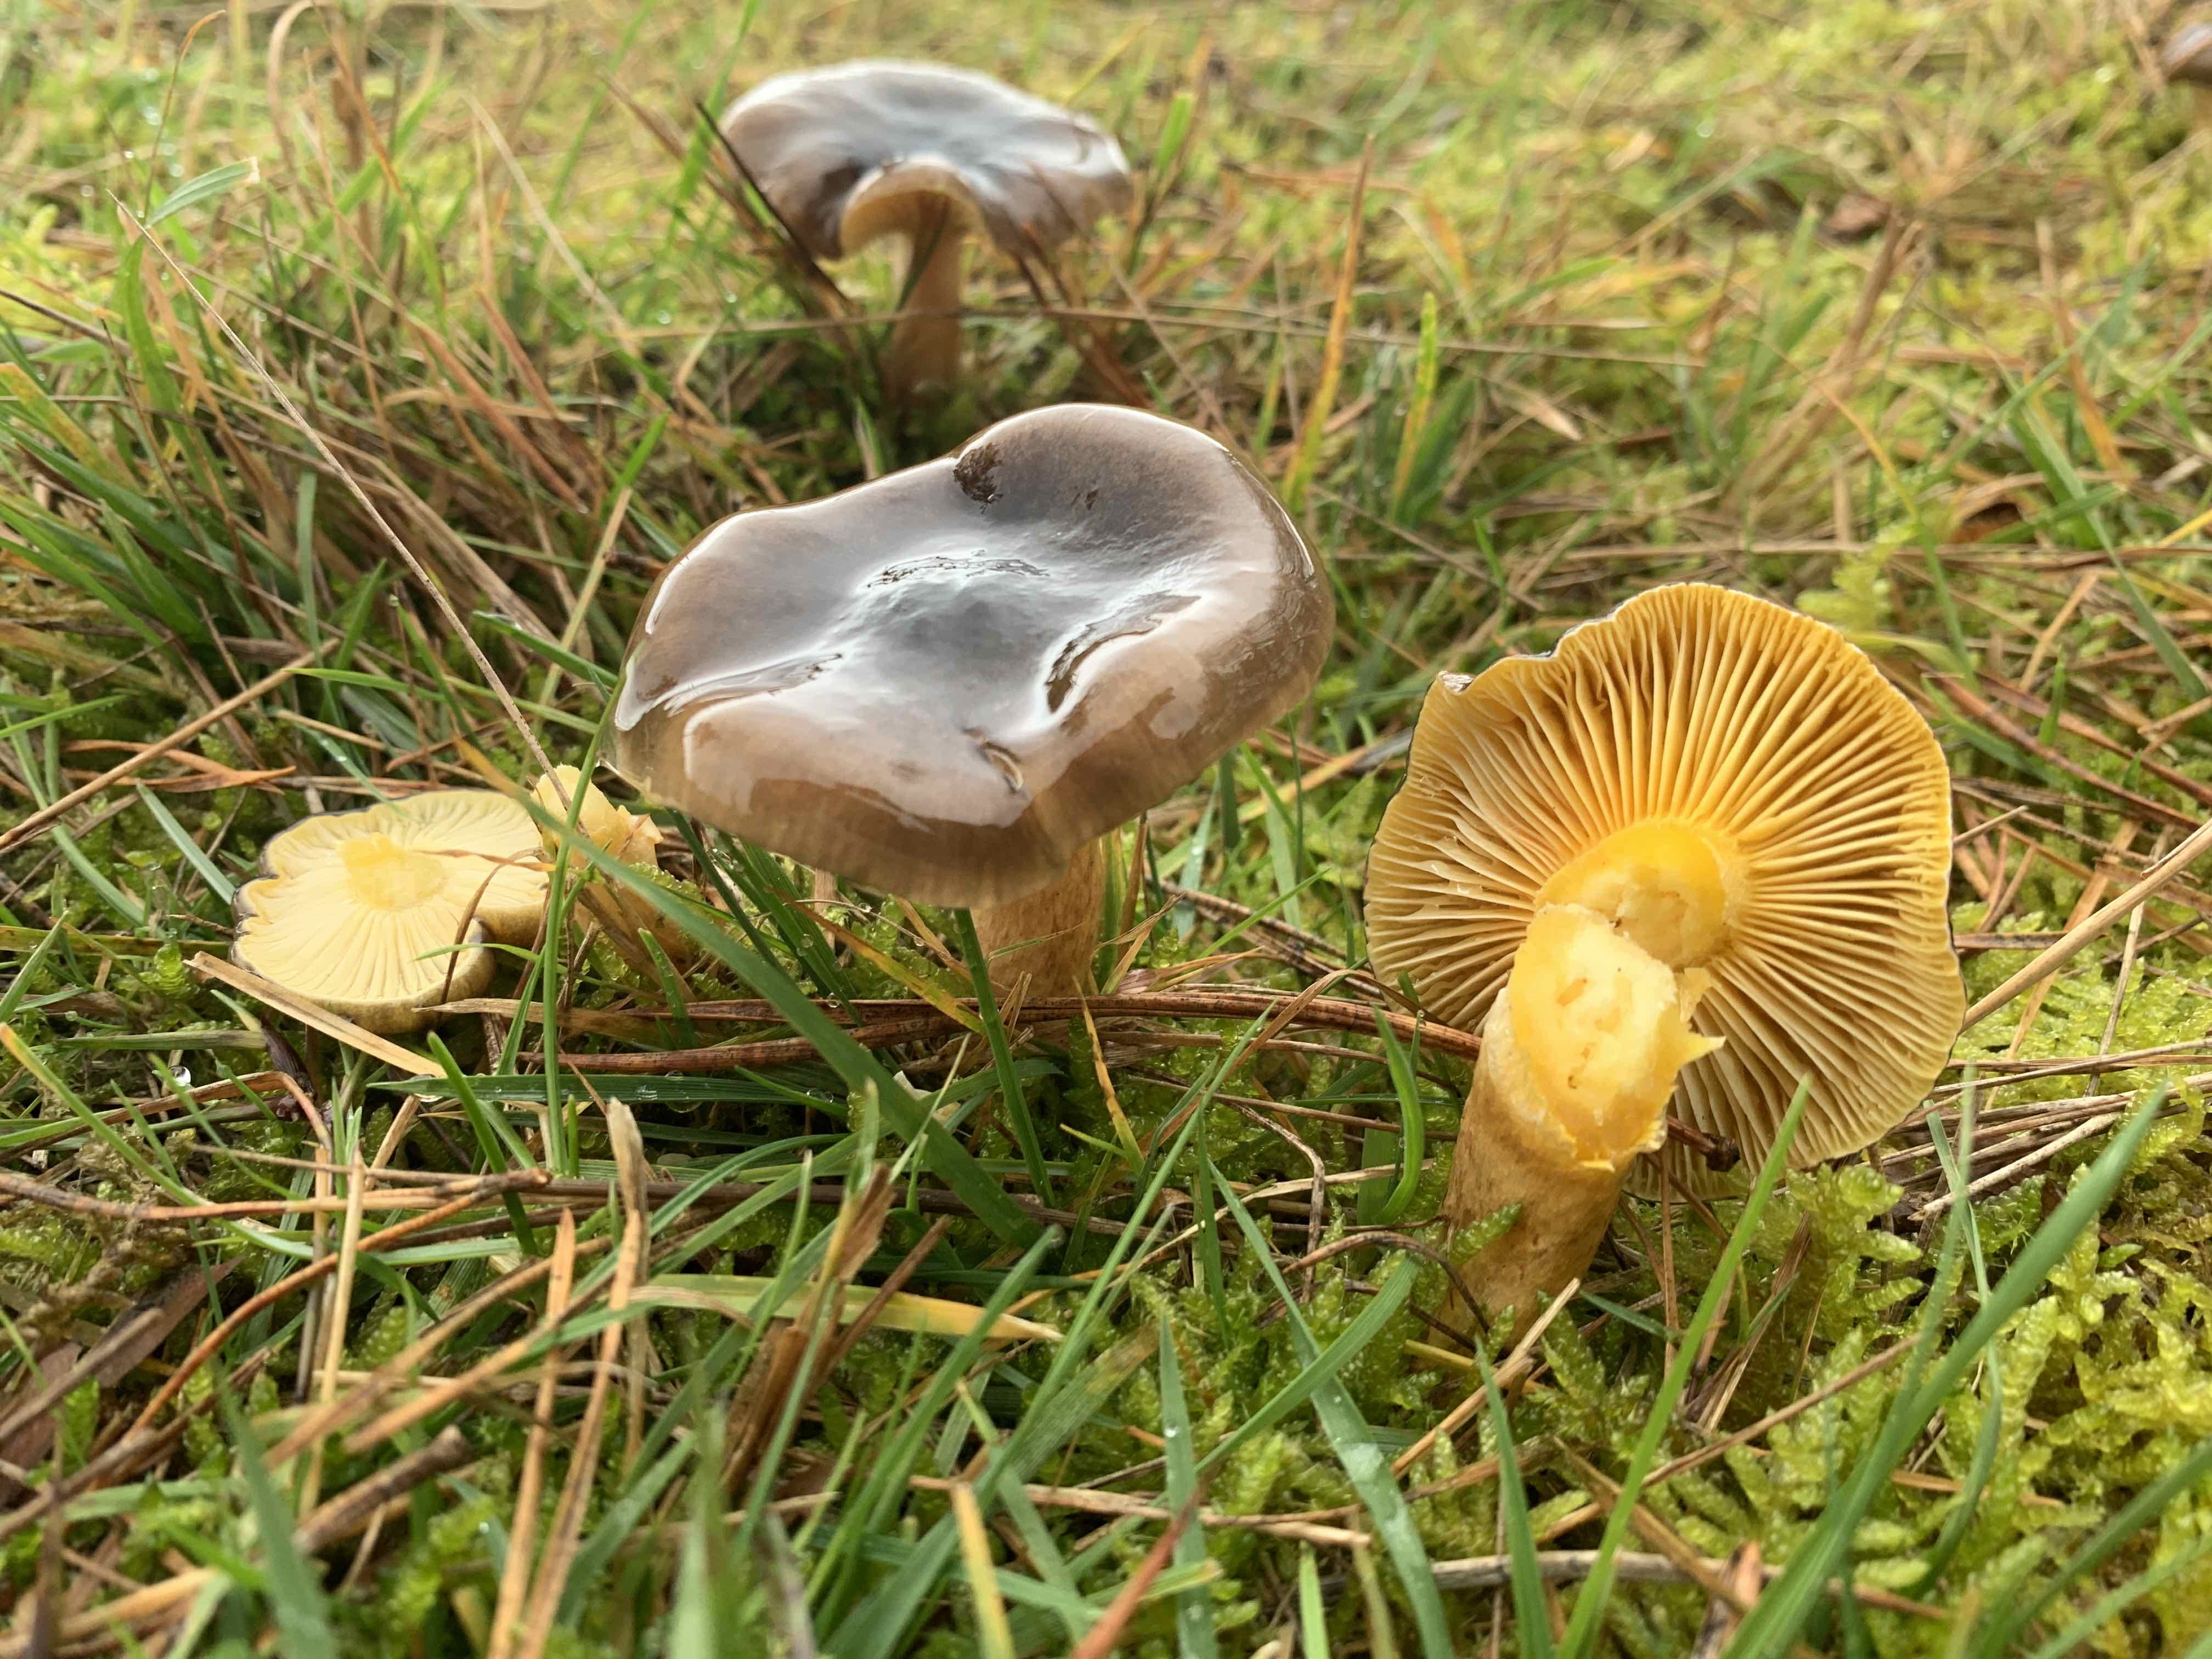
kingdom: Fungi
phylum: Basidiomycota
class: Agaricomycetes
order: Agaricales
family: Hygrophoraceae
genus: Hygrophorus
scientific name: Hygrophorus hypothejus
